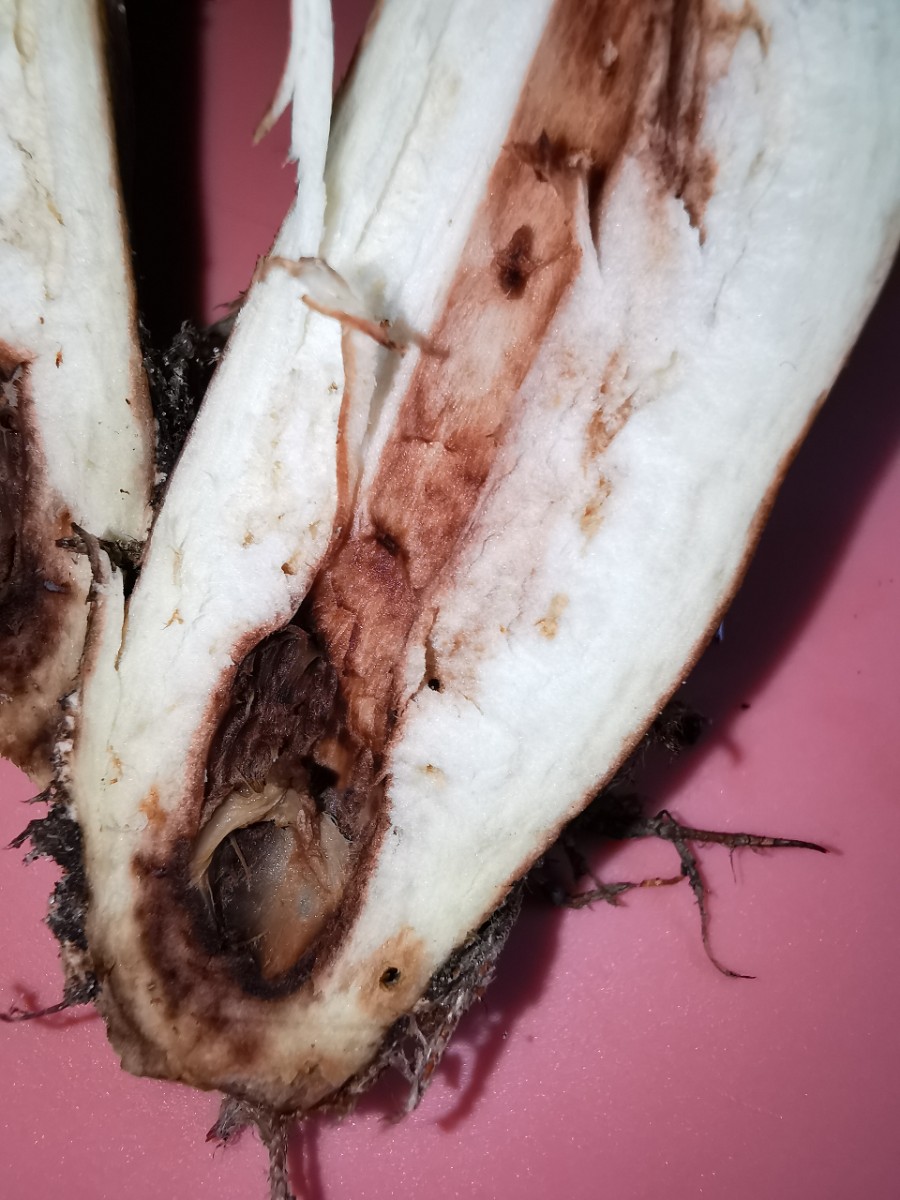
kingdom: Fungi
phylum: Basidiomycota
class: Agaricomycetes
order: Agaricales
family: Tricholomataceae
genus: Tricholoma
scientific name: Tricholoma fulvum
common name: birke-ridderhat
